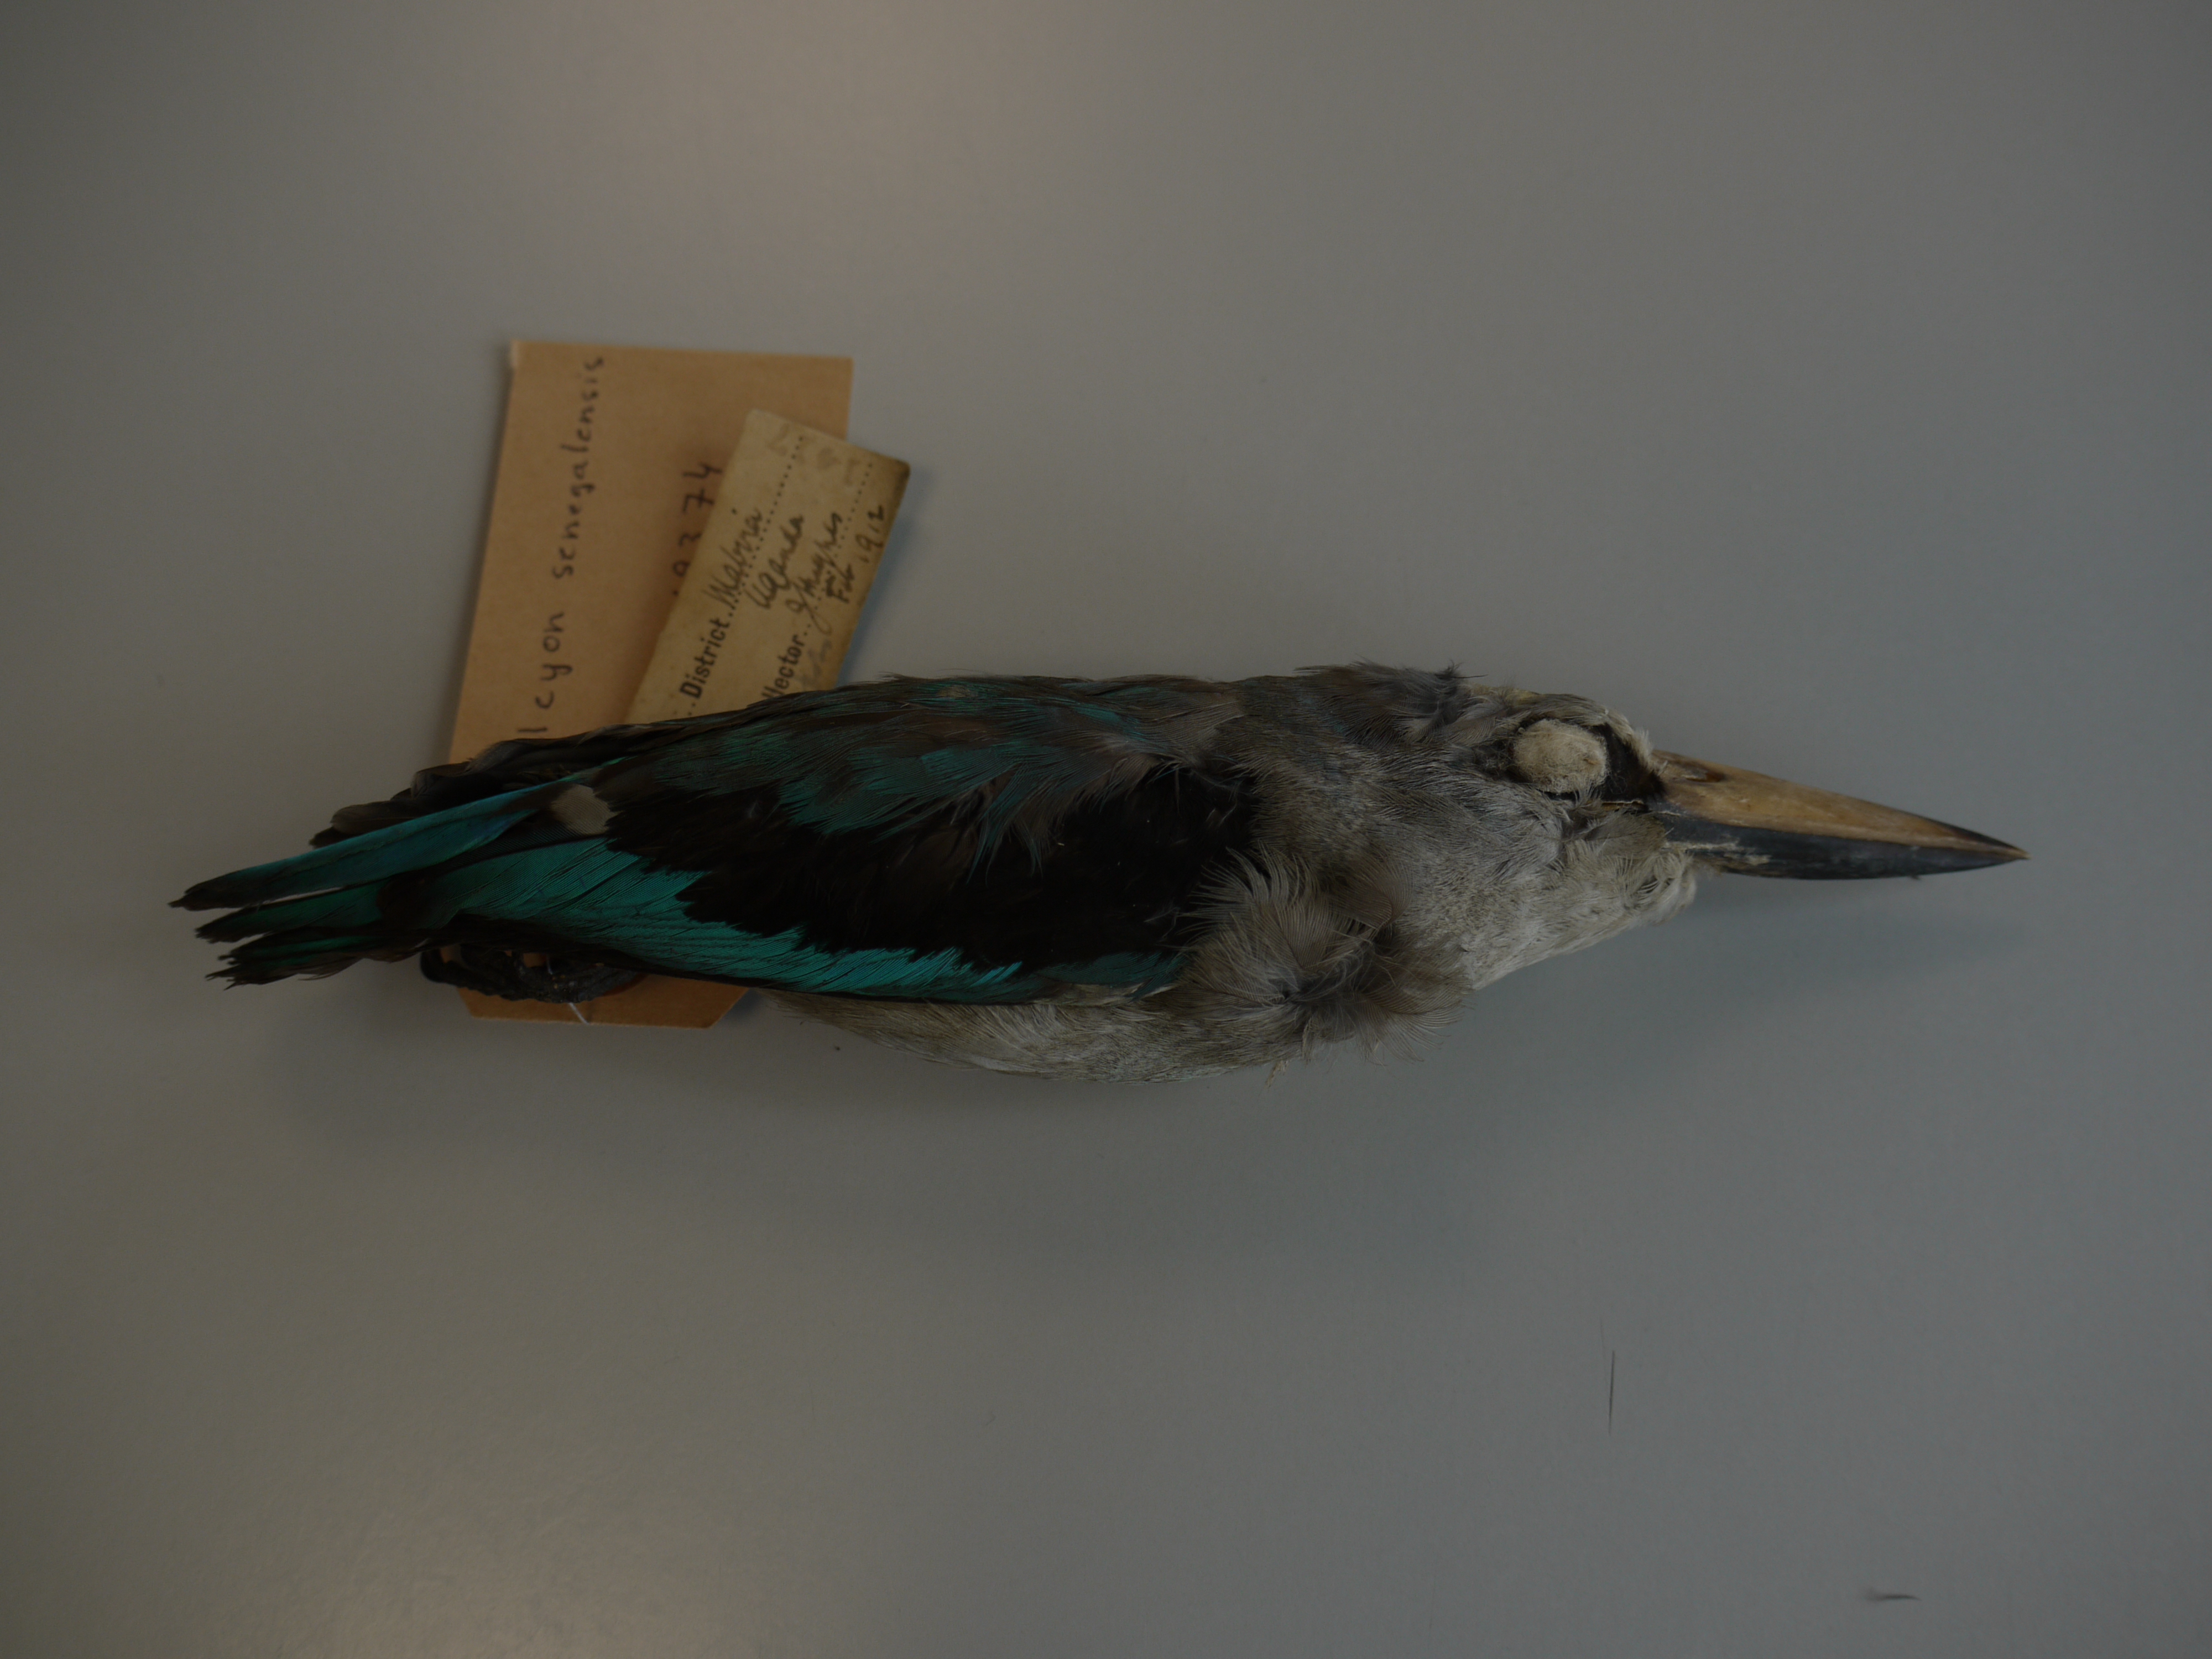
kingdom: Animalia
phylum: Chordata
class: Aves
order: Coraciiformes
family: Alcedinidae
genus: Halcyon
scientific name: Halcyon senegalensis
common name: Woodland kingfisher
